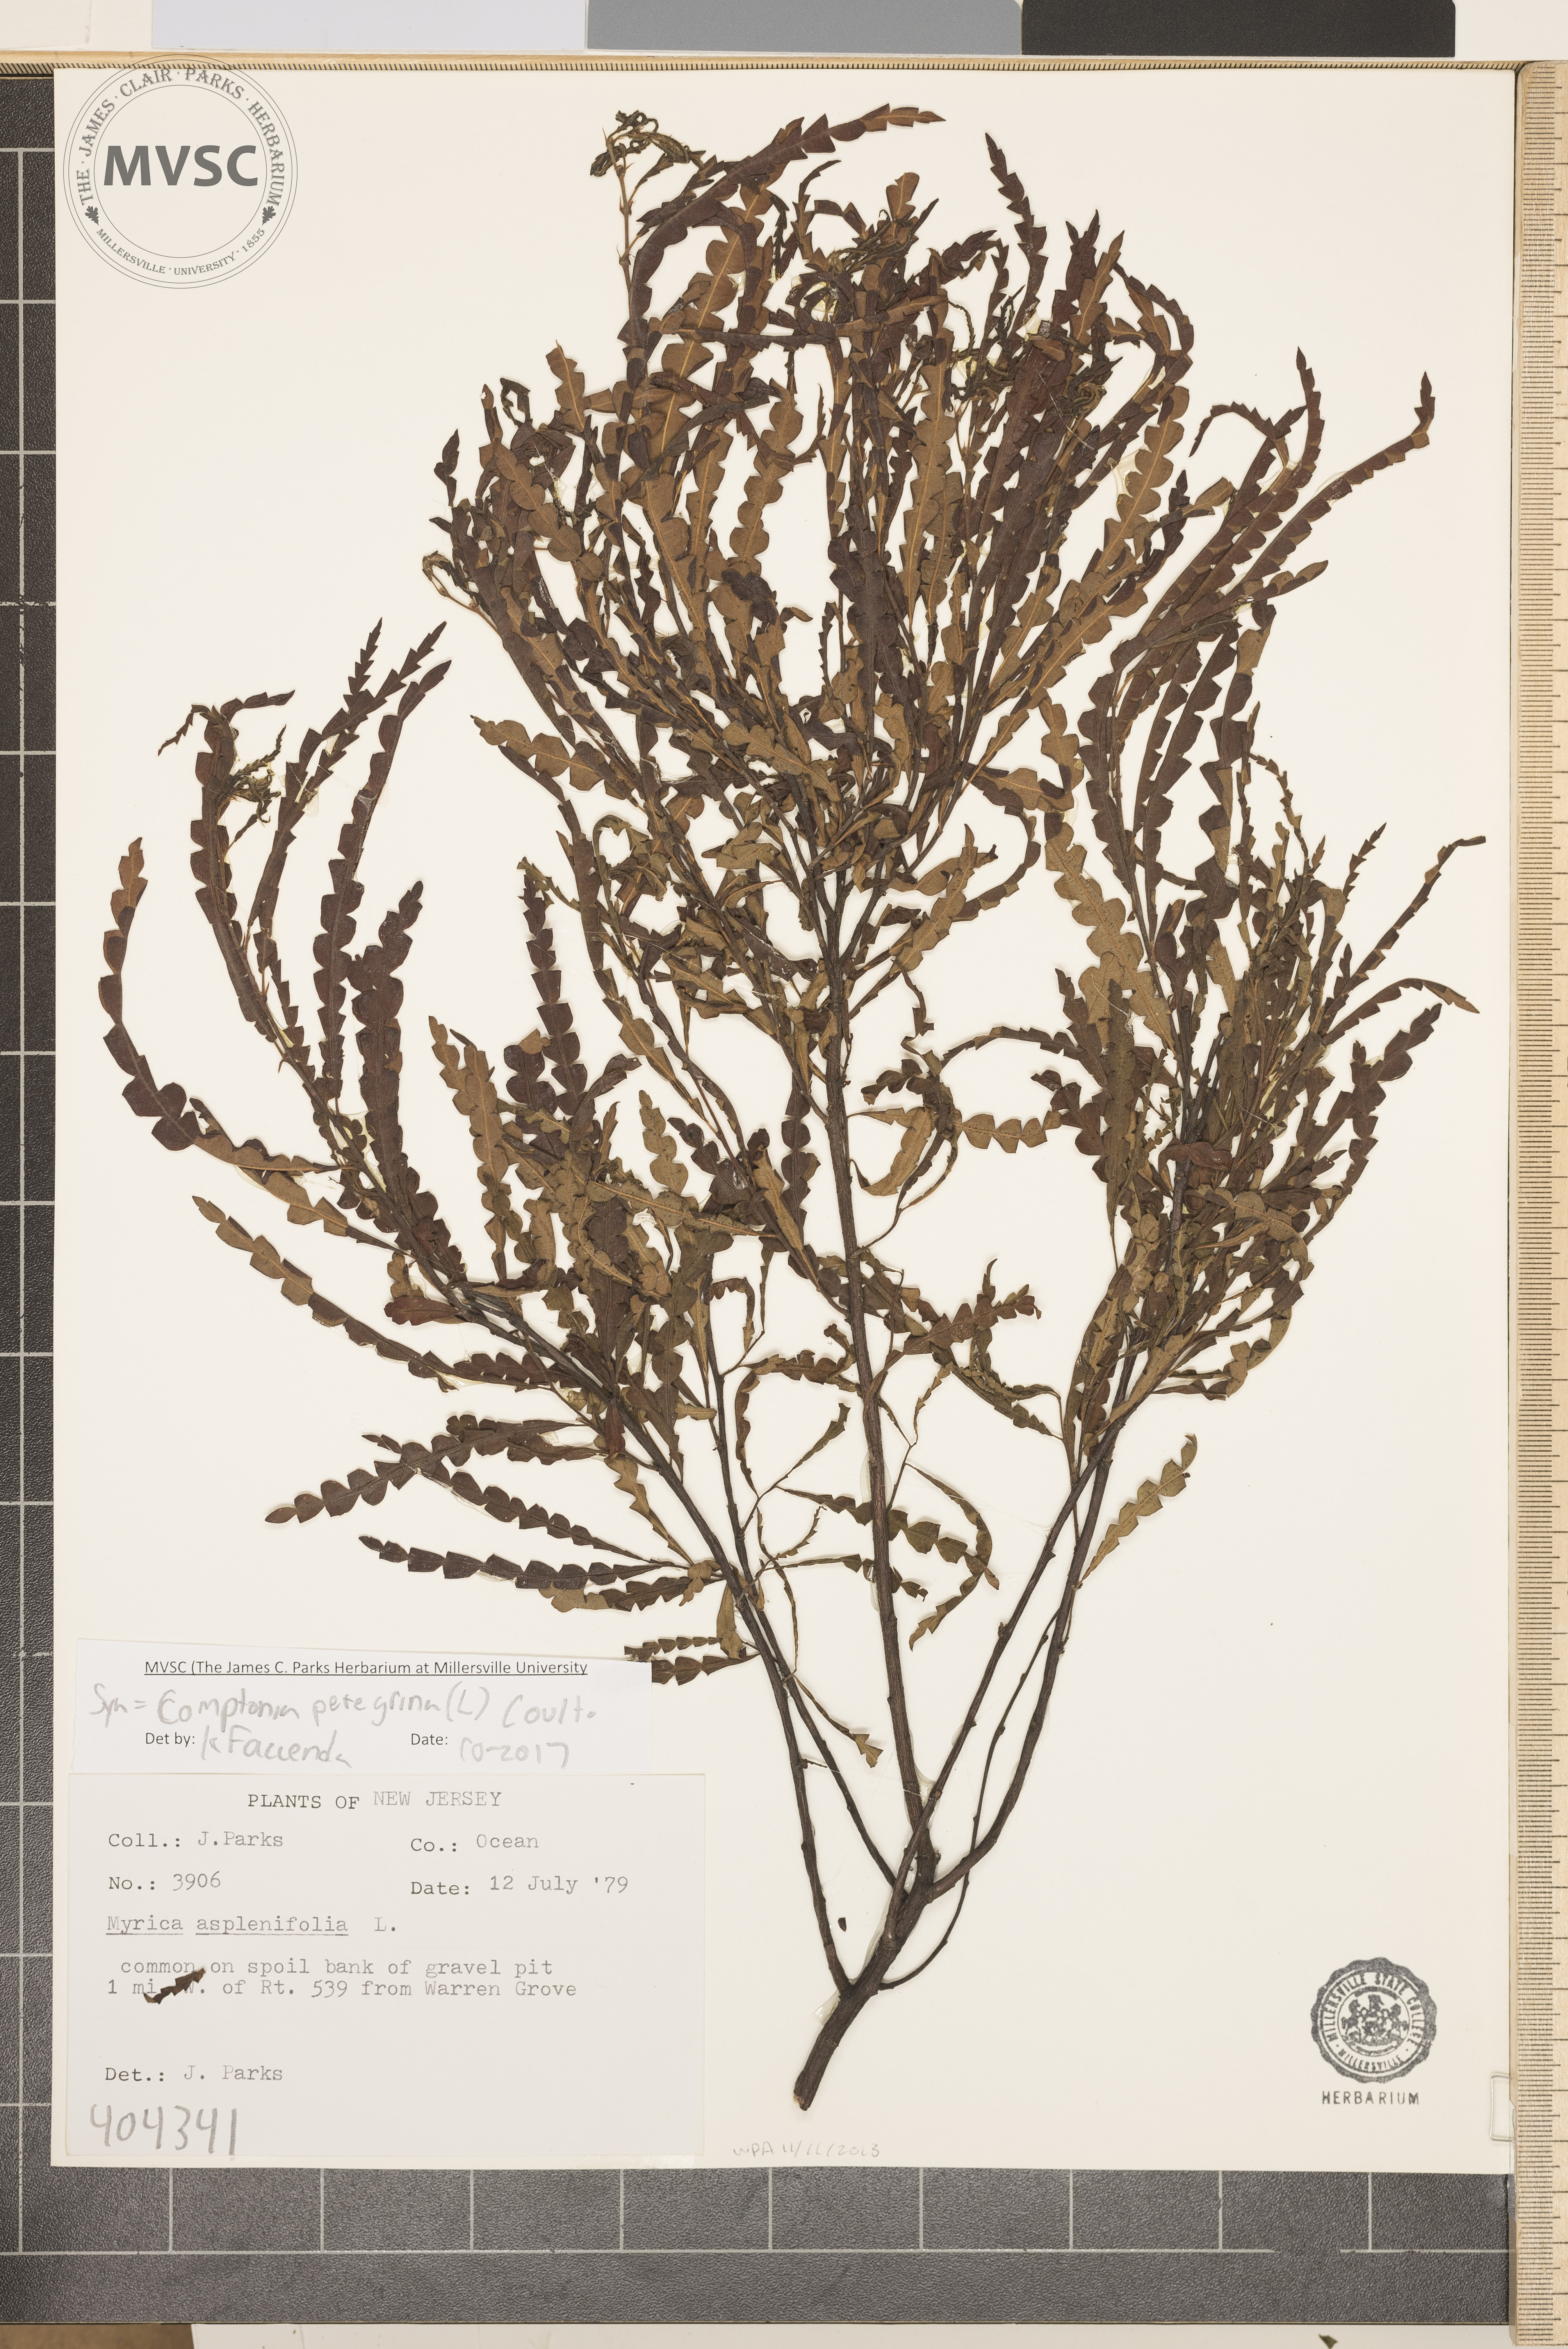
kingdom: Plantae
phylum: Tracheophyta
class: Magnoliopsida
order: Fagales
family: Myricaceae
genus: Comptonia
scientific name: Comptonia peregrina
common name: Sweetfern
